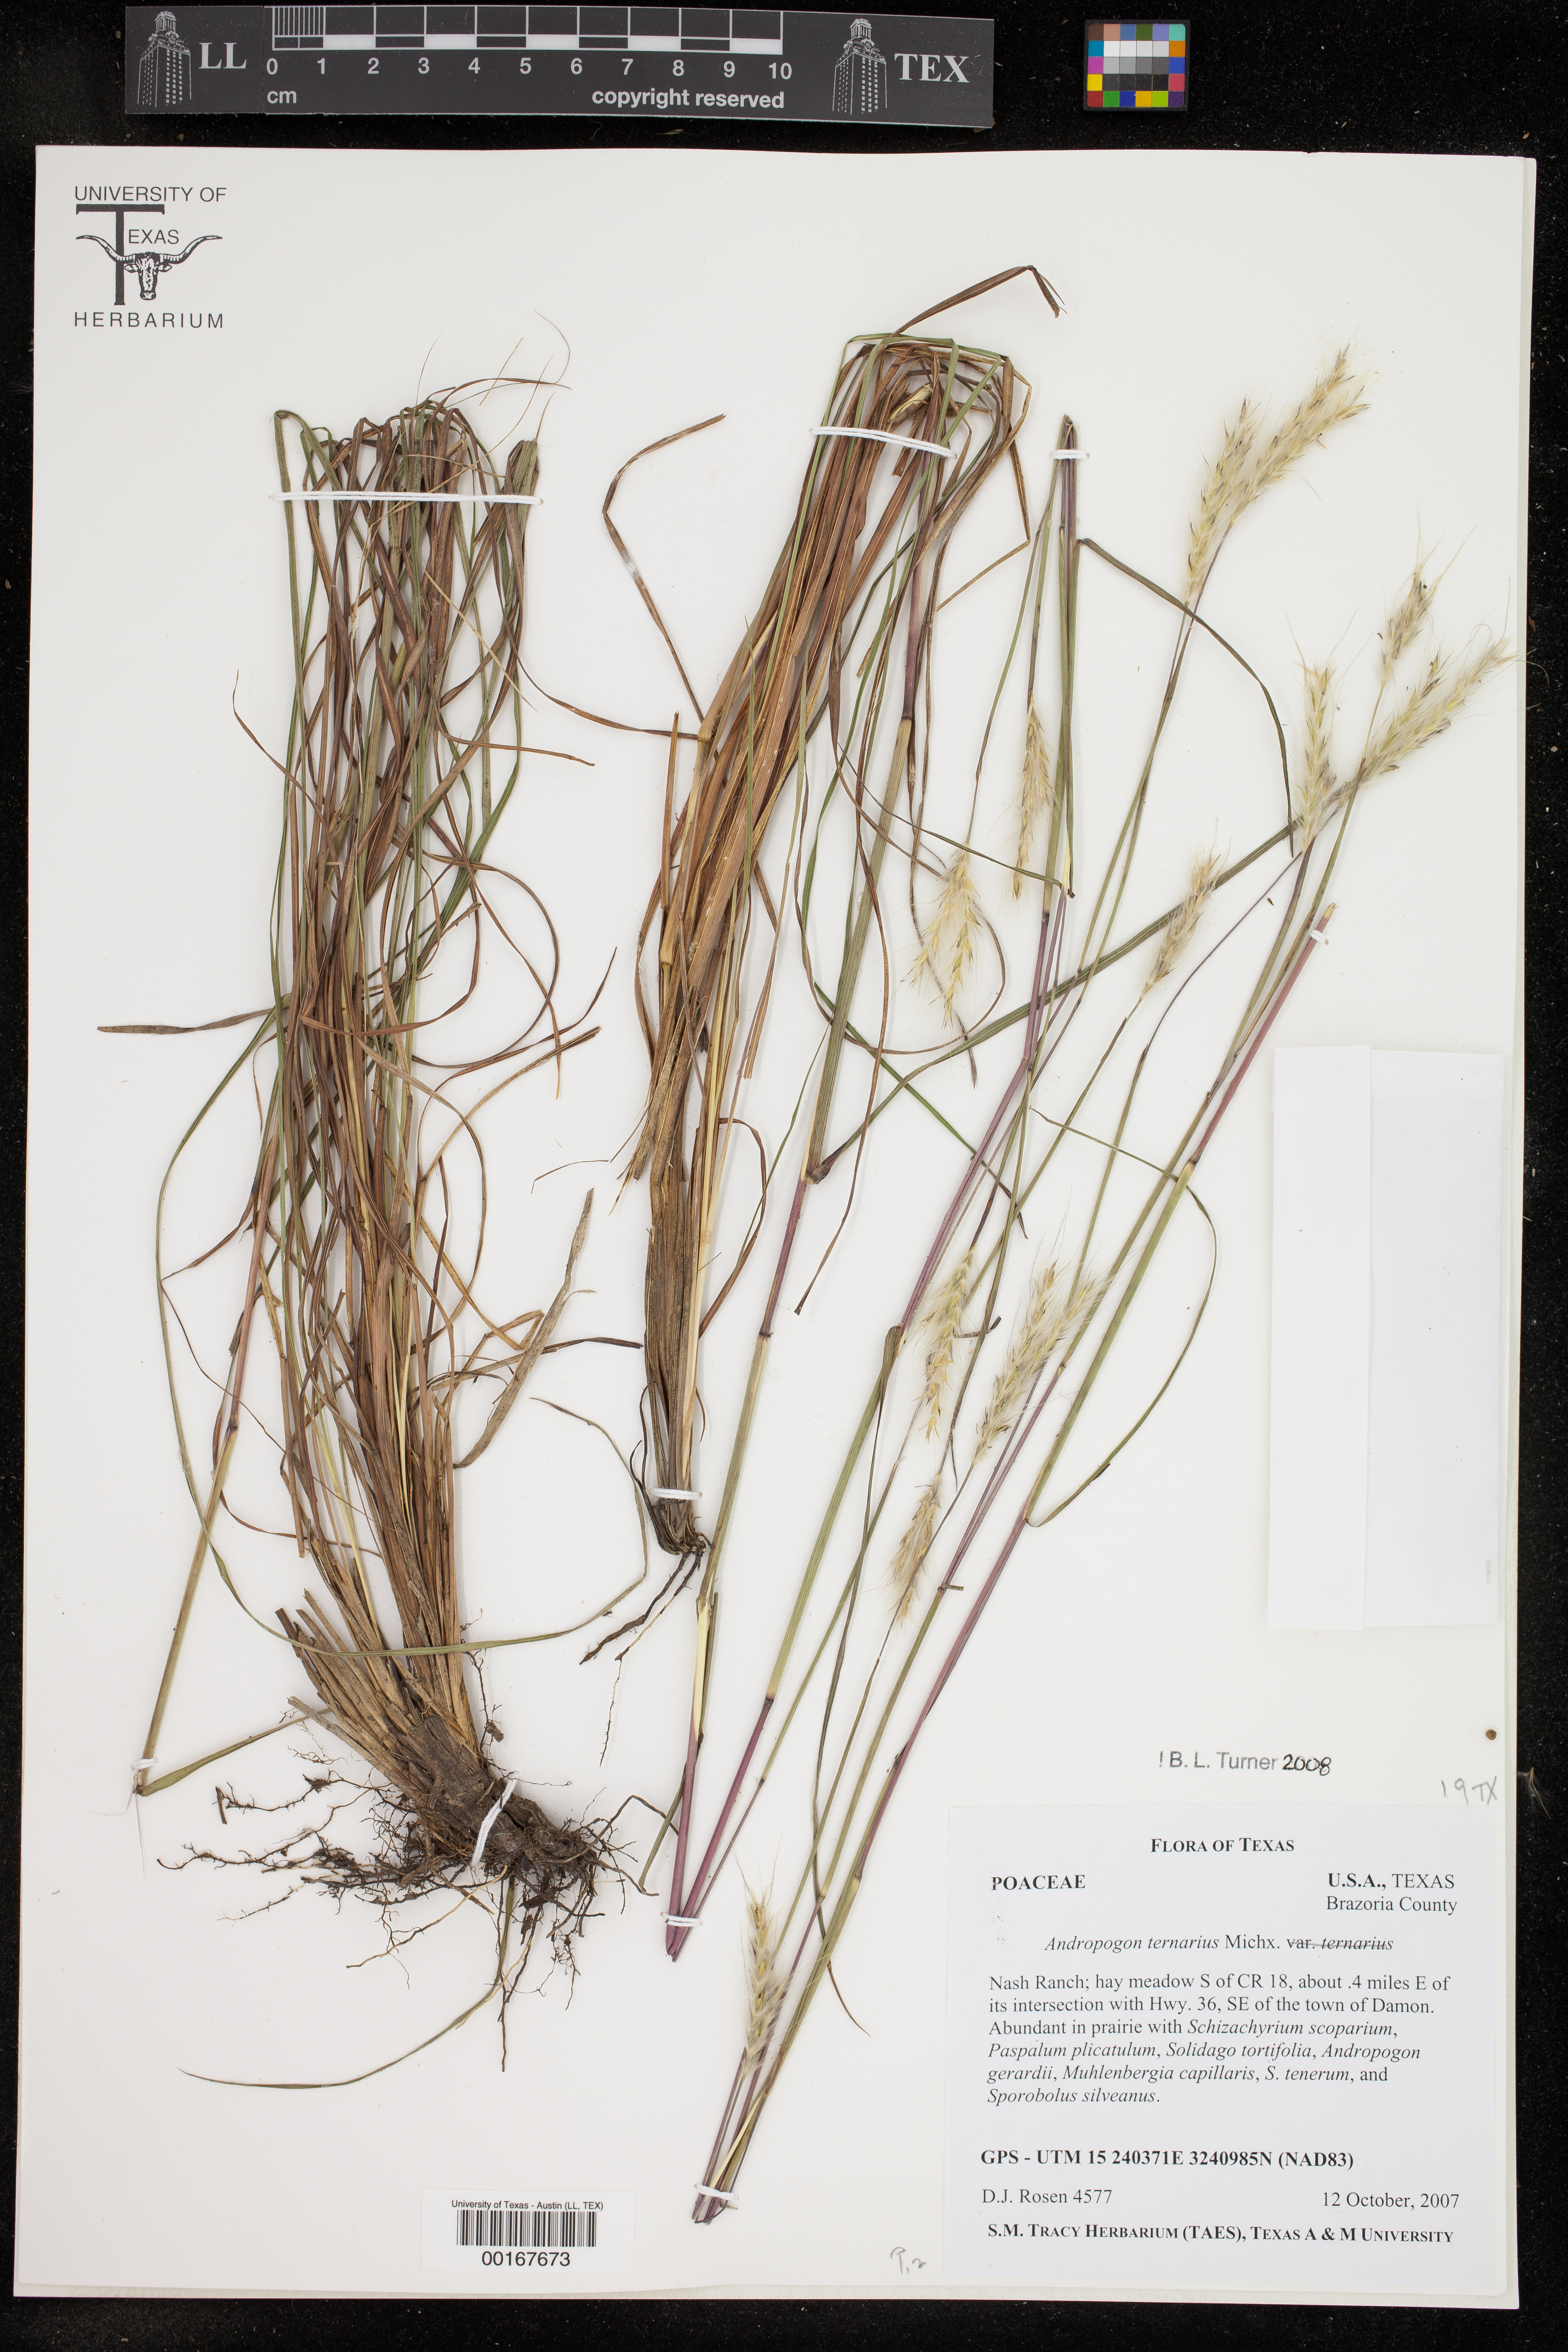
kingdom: Plantae
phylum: Tracheophyta
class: Liliopsida
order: Poales
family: Poaceae
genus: Andropogon
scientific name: Andropogon ternarius
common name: Split bluestem
